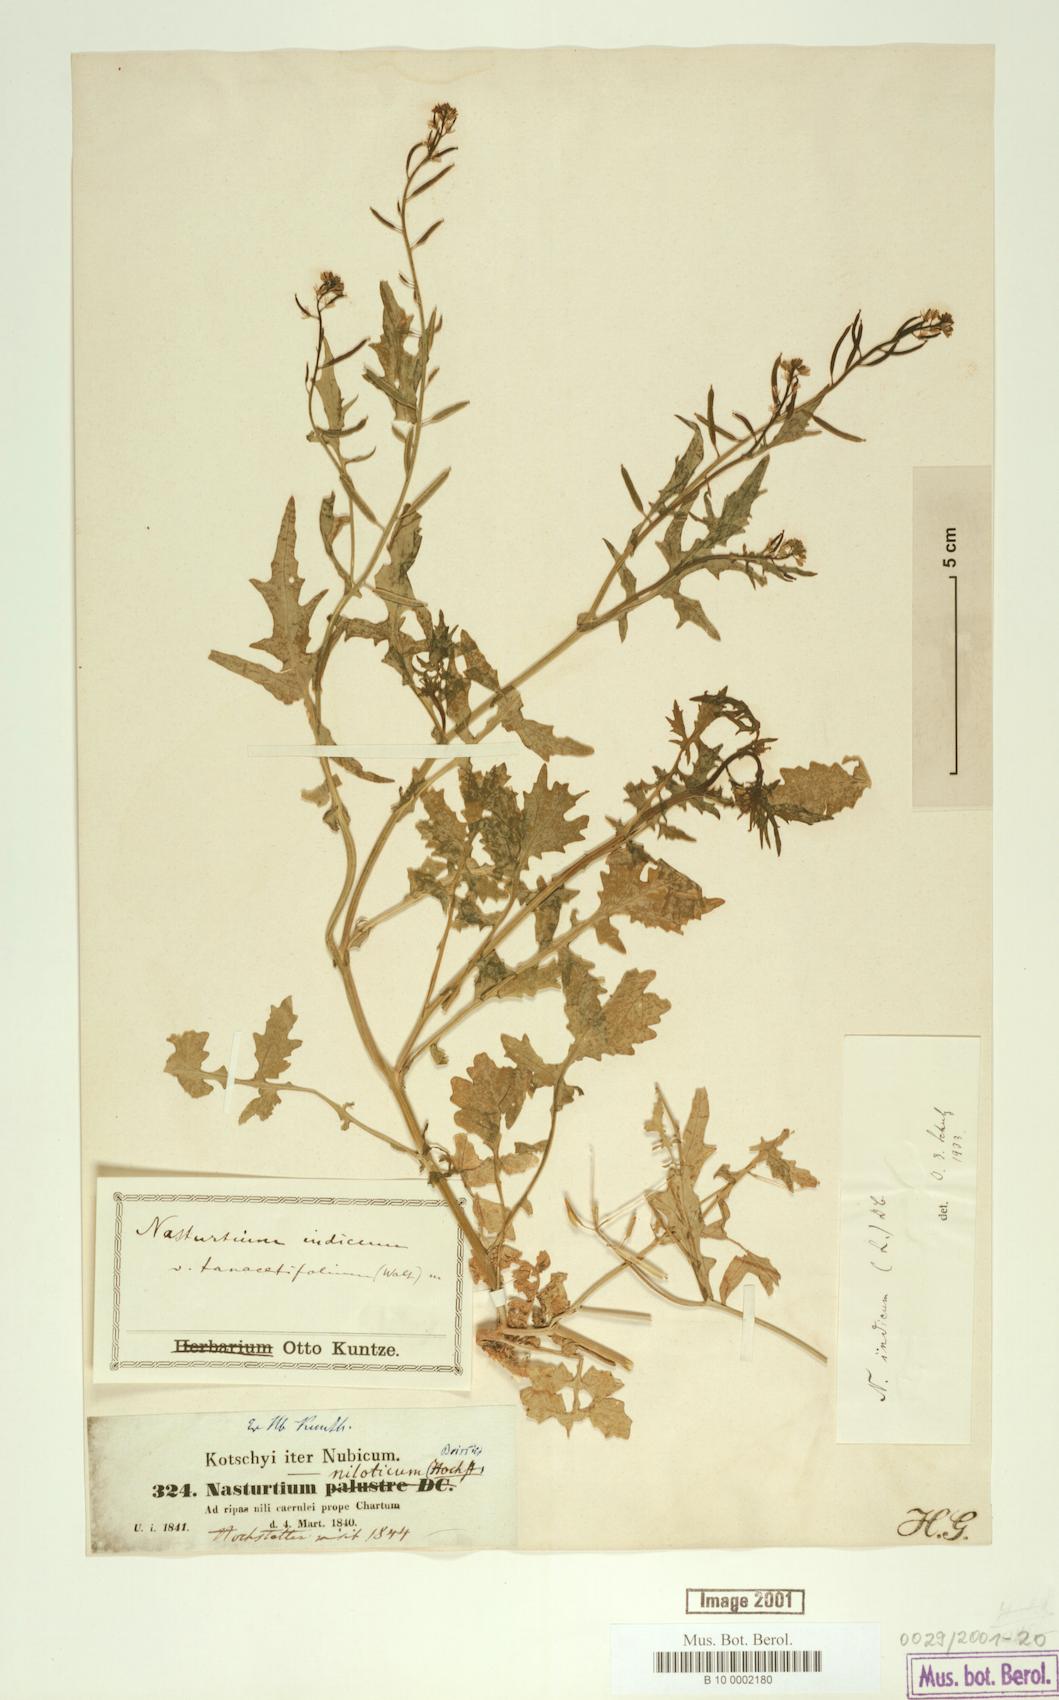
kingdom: Plantae
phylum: Tracheophyta
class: Magnoliopsida
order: Brassicales
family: Brassicaceae
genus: Rorippa
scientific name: Rorippa indica
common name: Variableleaf yellowcress
